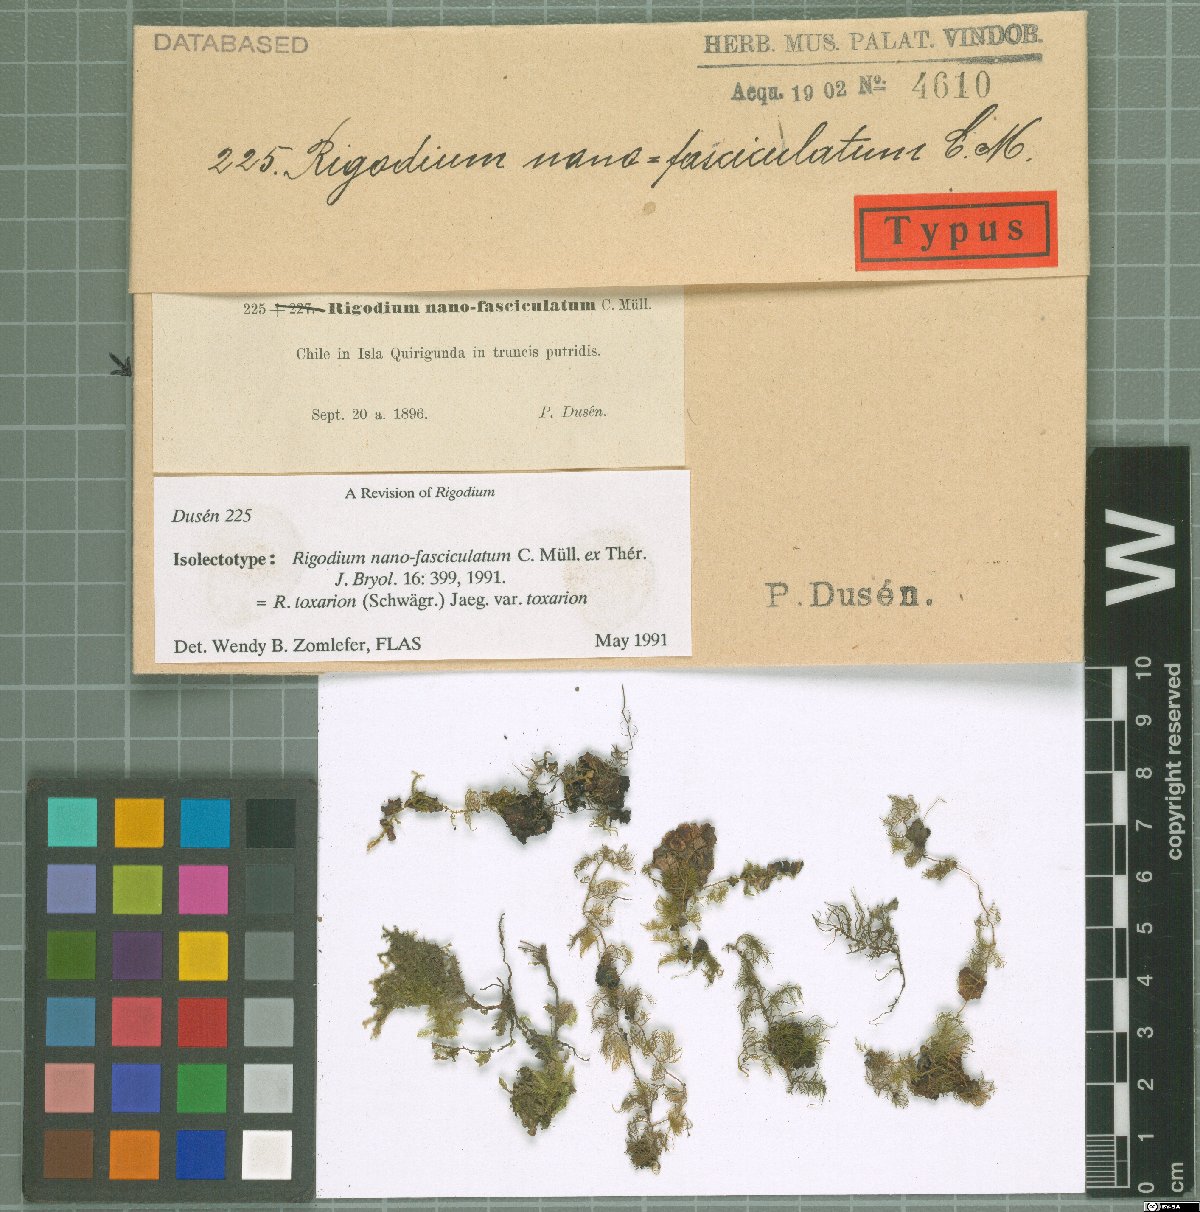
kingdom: Plantae
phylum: Bryophyta
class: Bryopsida
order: Hypnales
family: Lembophyllaceae
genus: Rigodium
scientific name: Rigodium toxarion
